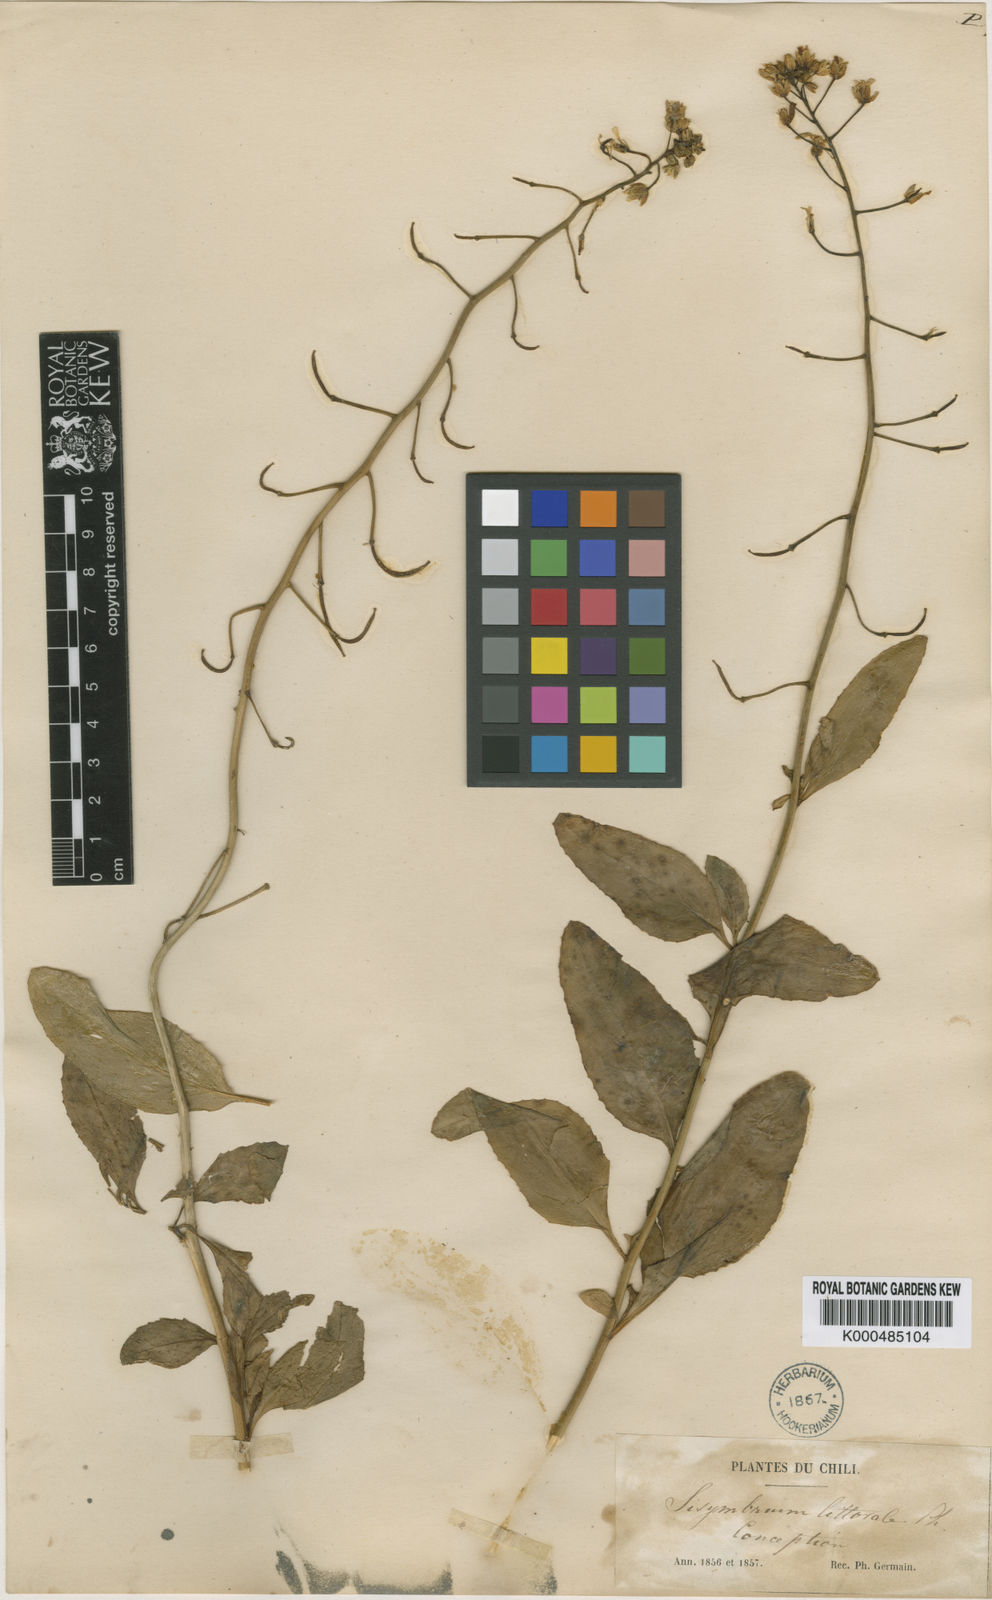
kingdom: Plantae
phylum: Tracheophyta
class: Magnoliopsida
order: Brassicales
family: Brassicaceae
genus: Polypsecadium
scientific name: Polypsecadium litorale
